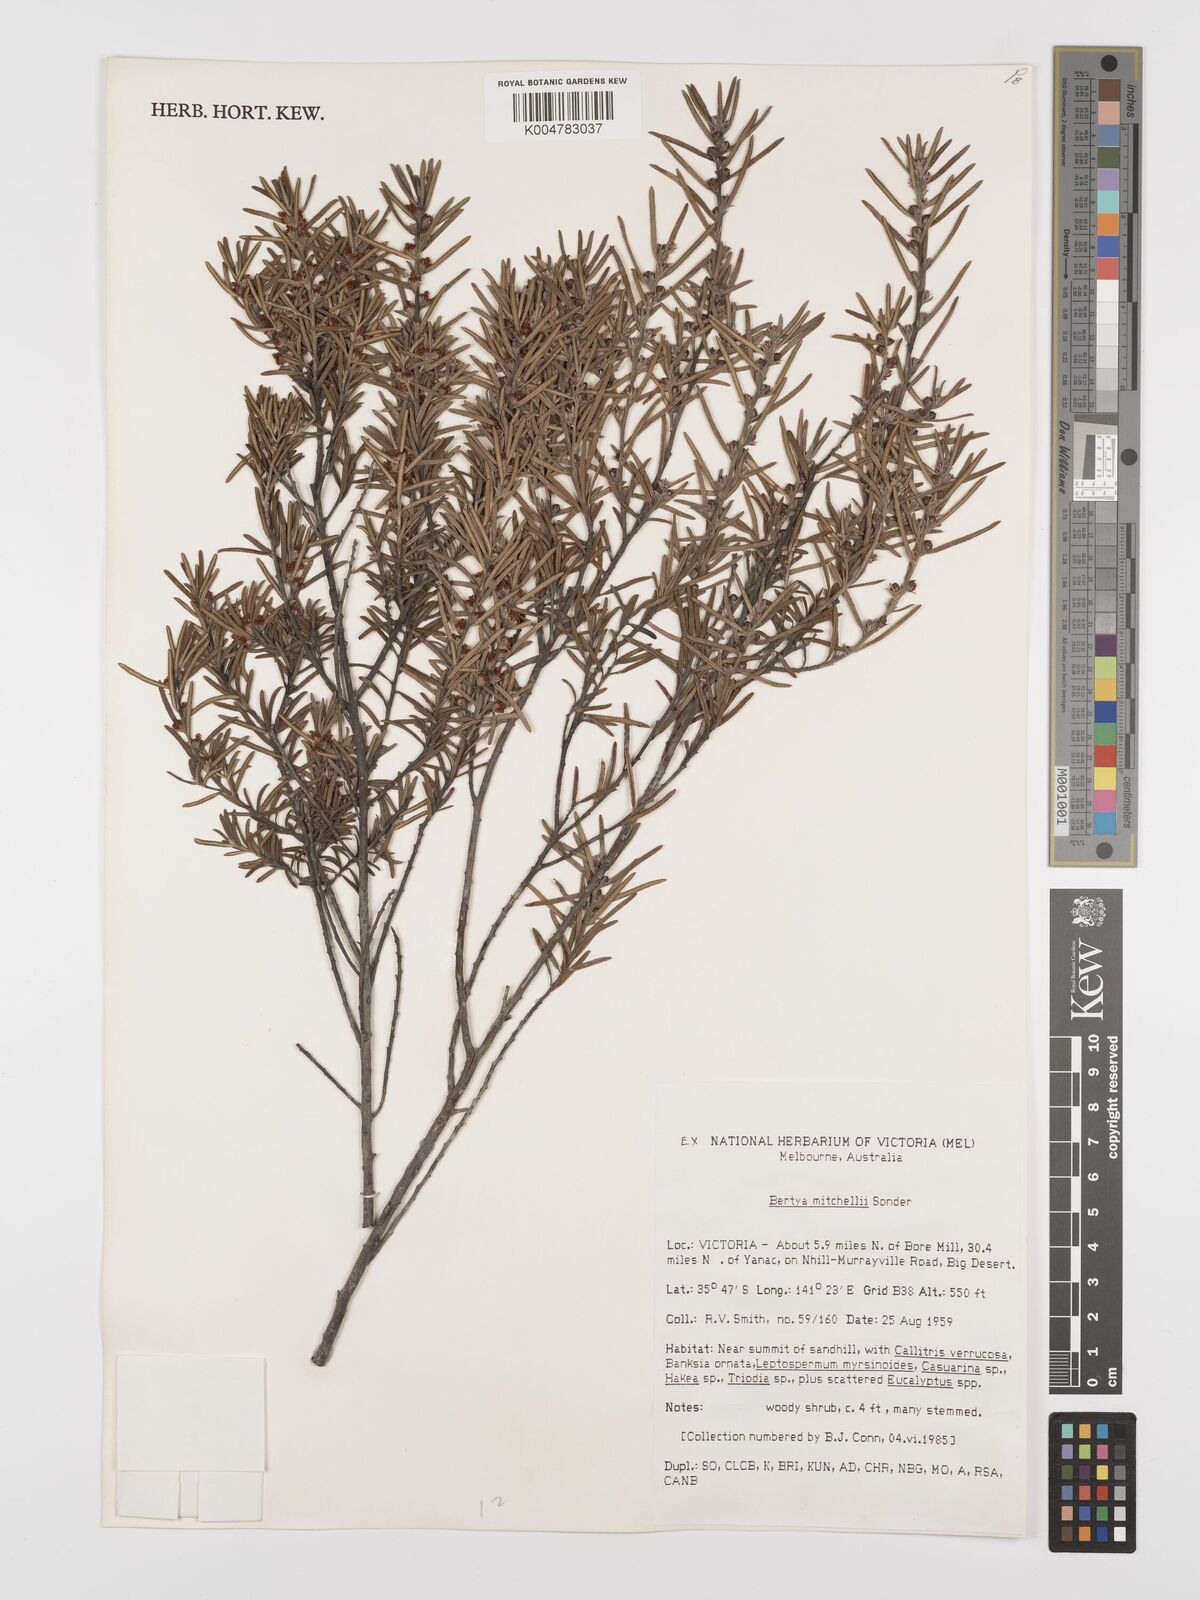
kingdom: Plantae
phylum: Tracheophyta
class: Magnoliopsida
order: Malpighiales
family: Euphorbiaceae
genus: Bertya
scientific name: Bertya oleifolia
